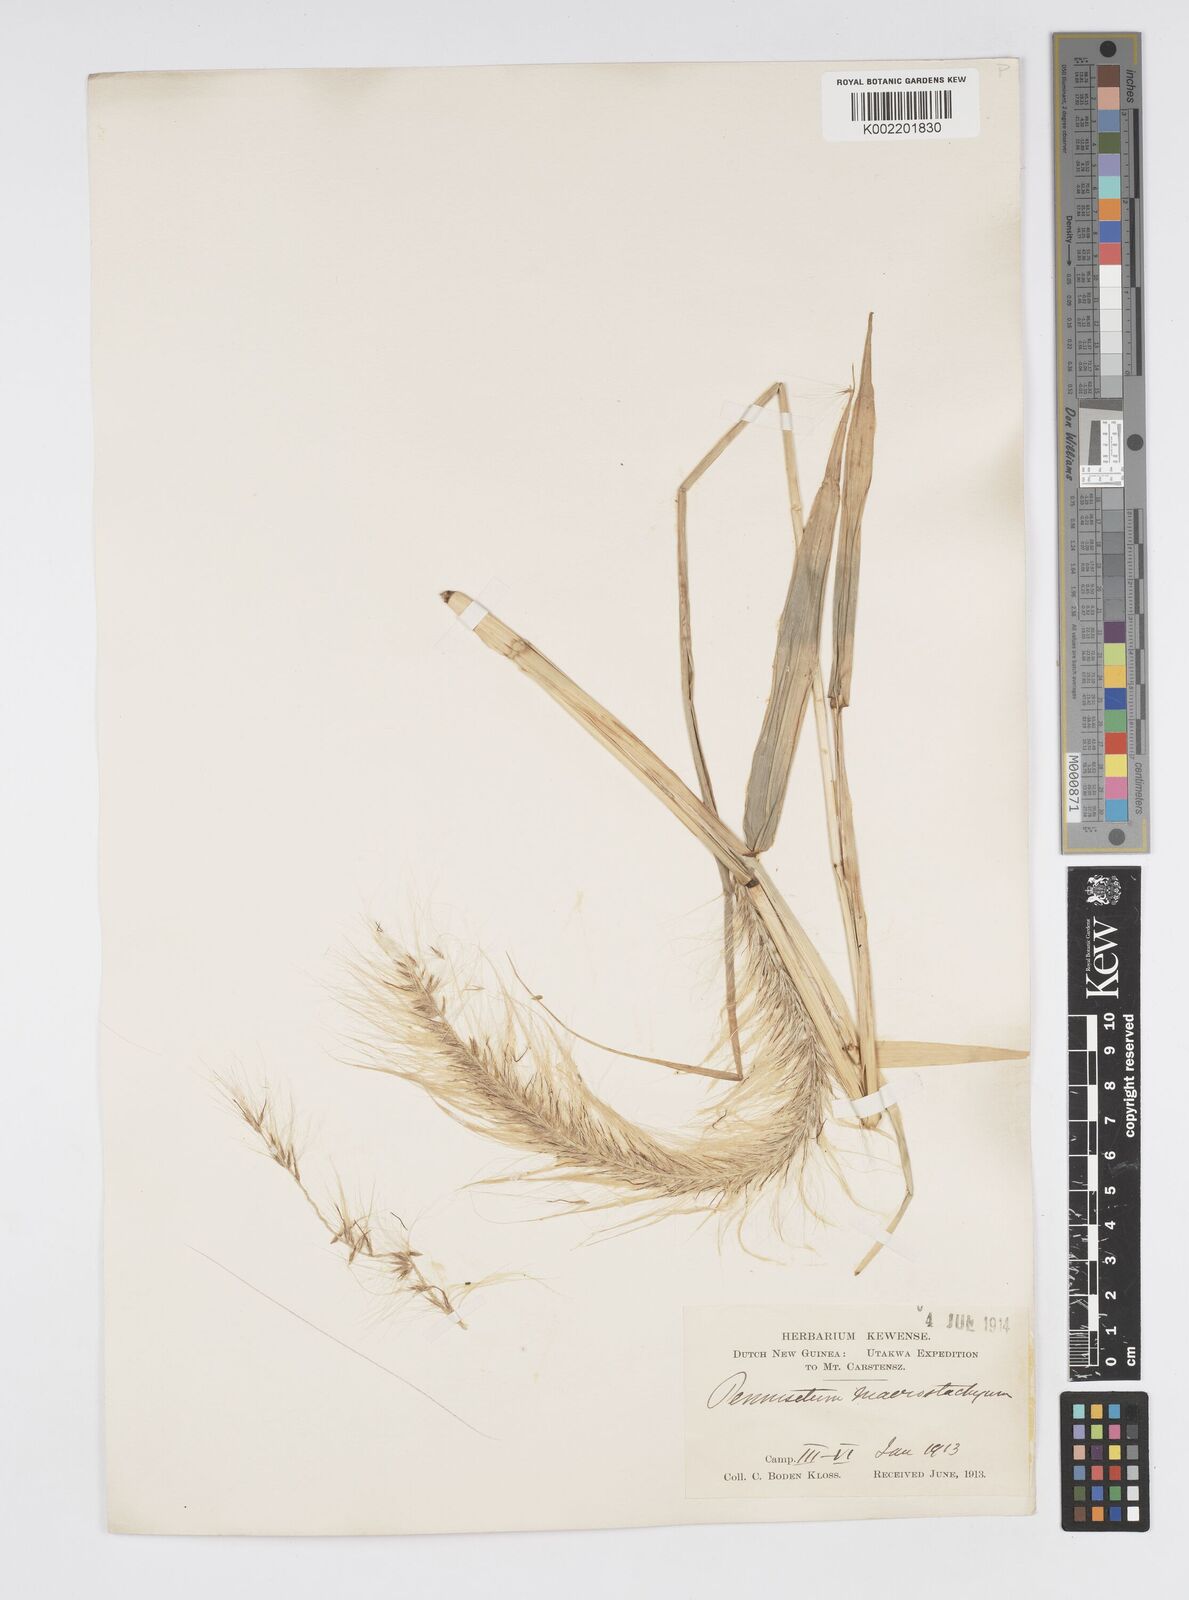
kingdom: Plantae
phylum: Tracheophyta
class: Liliopsida
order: Poales
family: Poaceae
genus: Cenchrus
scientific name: Cenchrus purpureus
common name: Elephant grass
